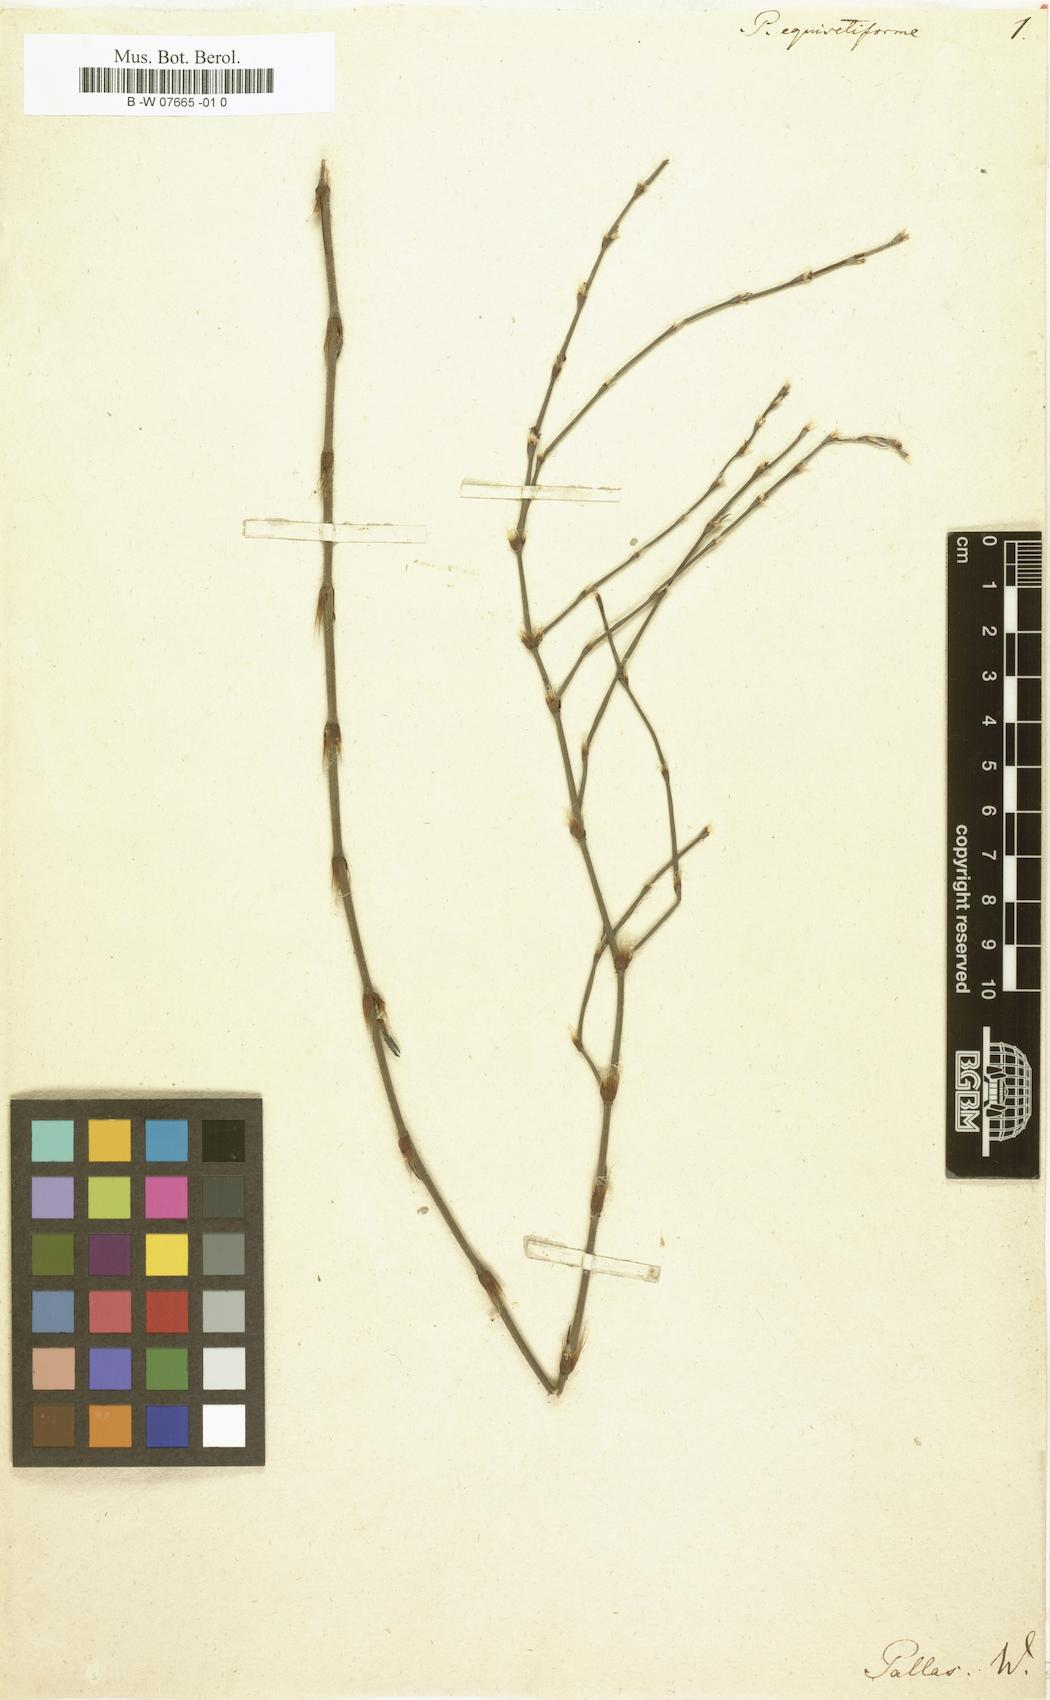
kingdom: Plantae
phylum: Tracheophyta
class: Magnoliopsida
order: Caryophyllales
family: Polygonaceae
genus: Polygonum
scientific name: Polygonum equisetiforme
